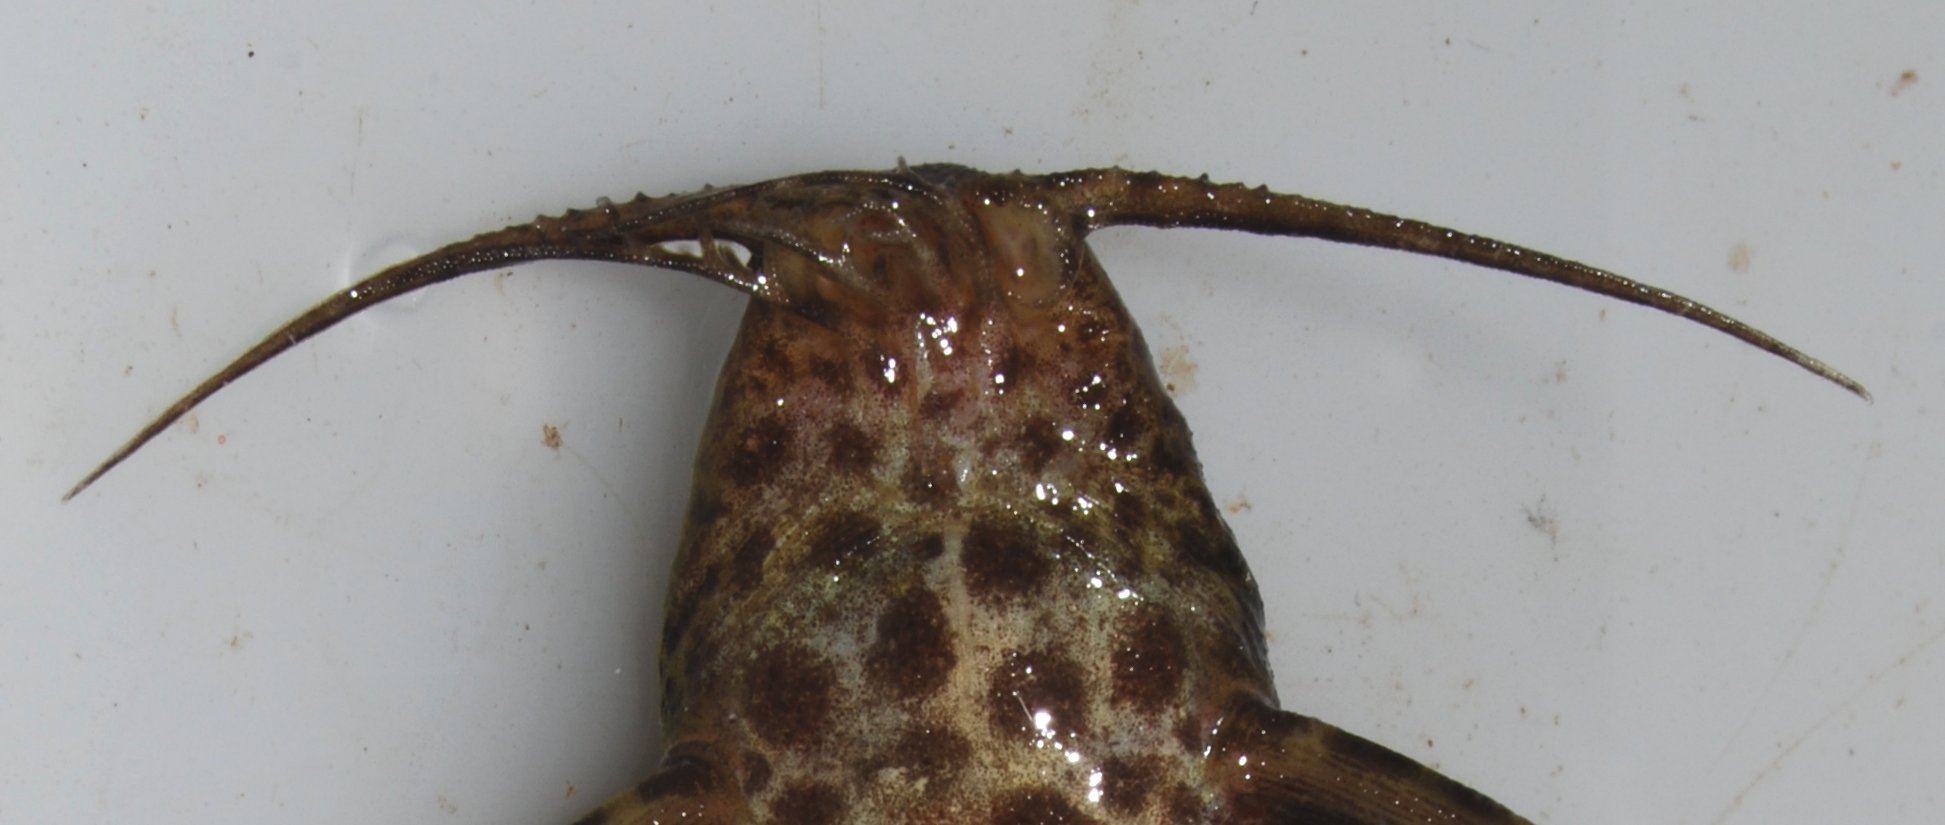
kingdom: Animalia
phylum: Chordata
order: Siluriformes
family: Mochokidae
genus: Synodontis
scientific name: Synodontis macrostigma
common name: Largespot squeaker
